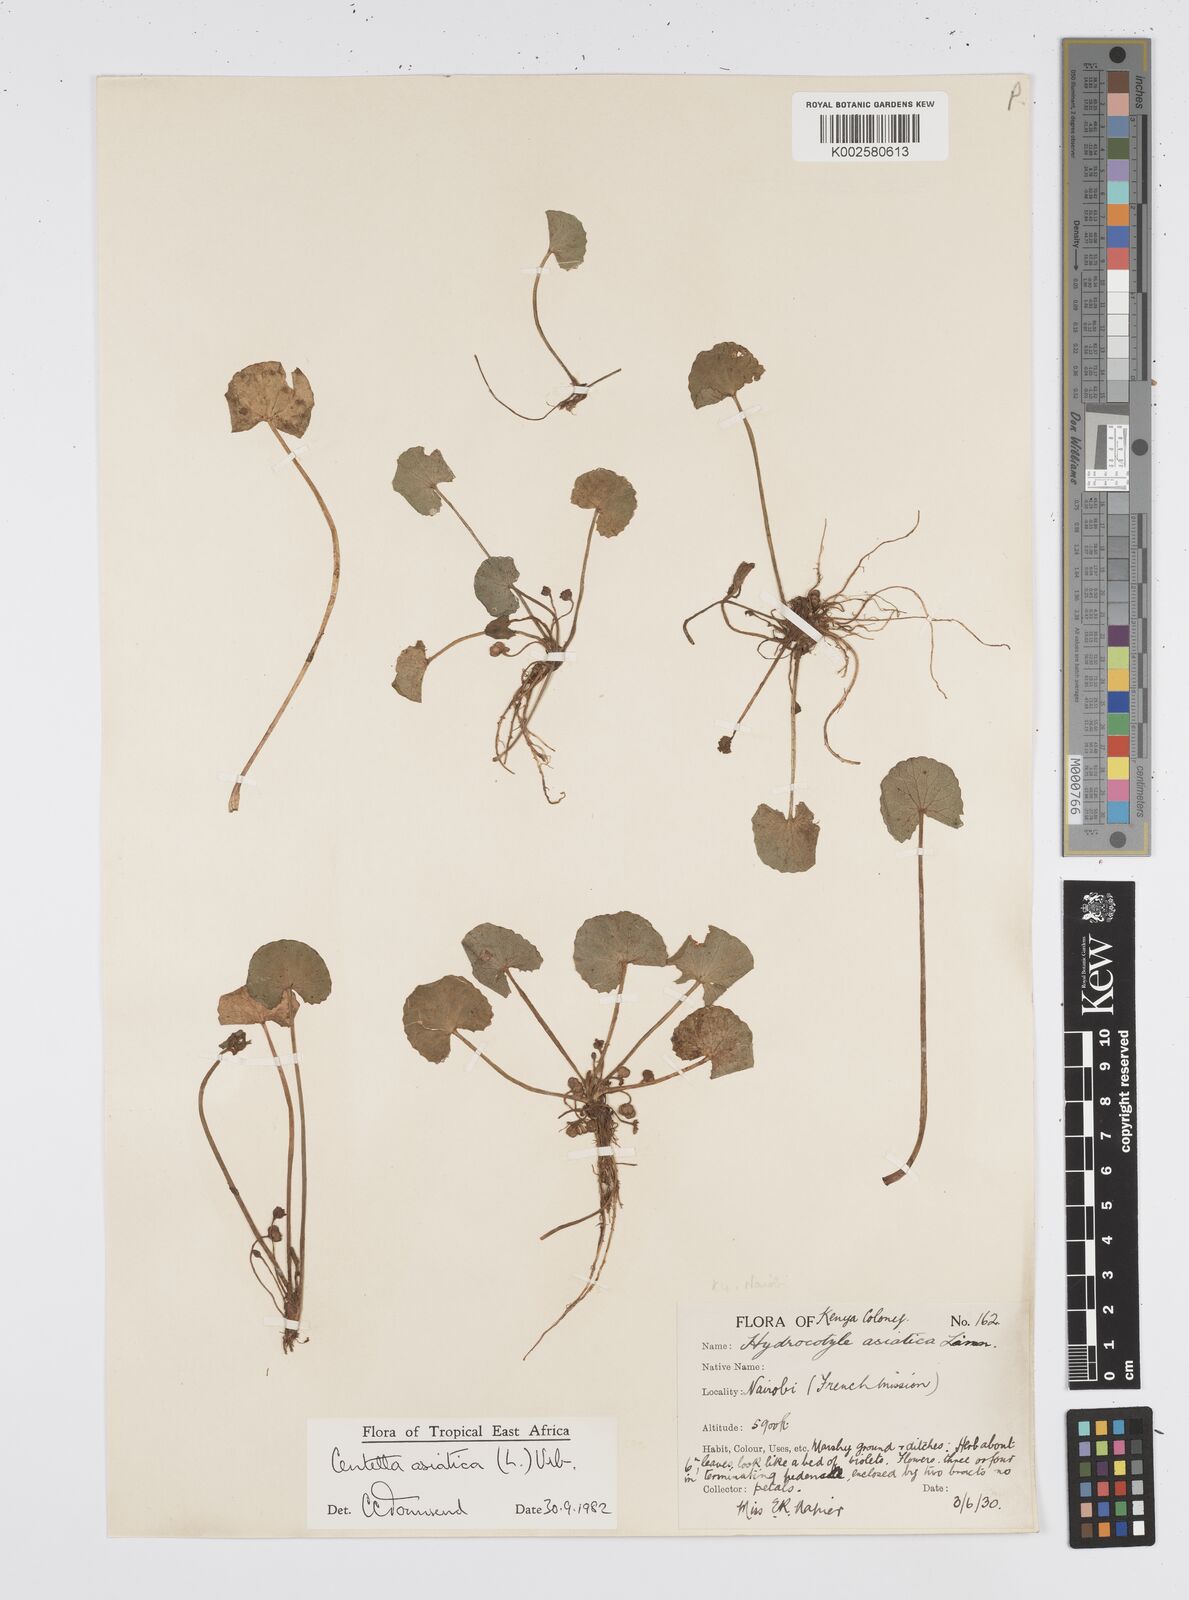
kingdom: Plantae
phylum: Tracheophyta
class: Magnoliopsida
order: Apiales
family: Apiaceae
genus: Centella
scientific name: Centella asiatica
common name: Spadeleaf
